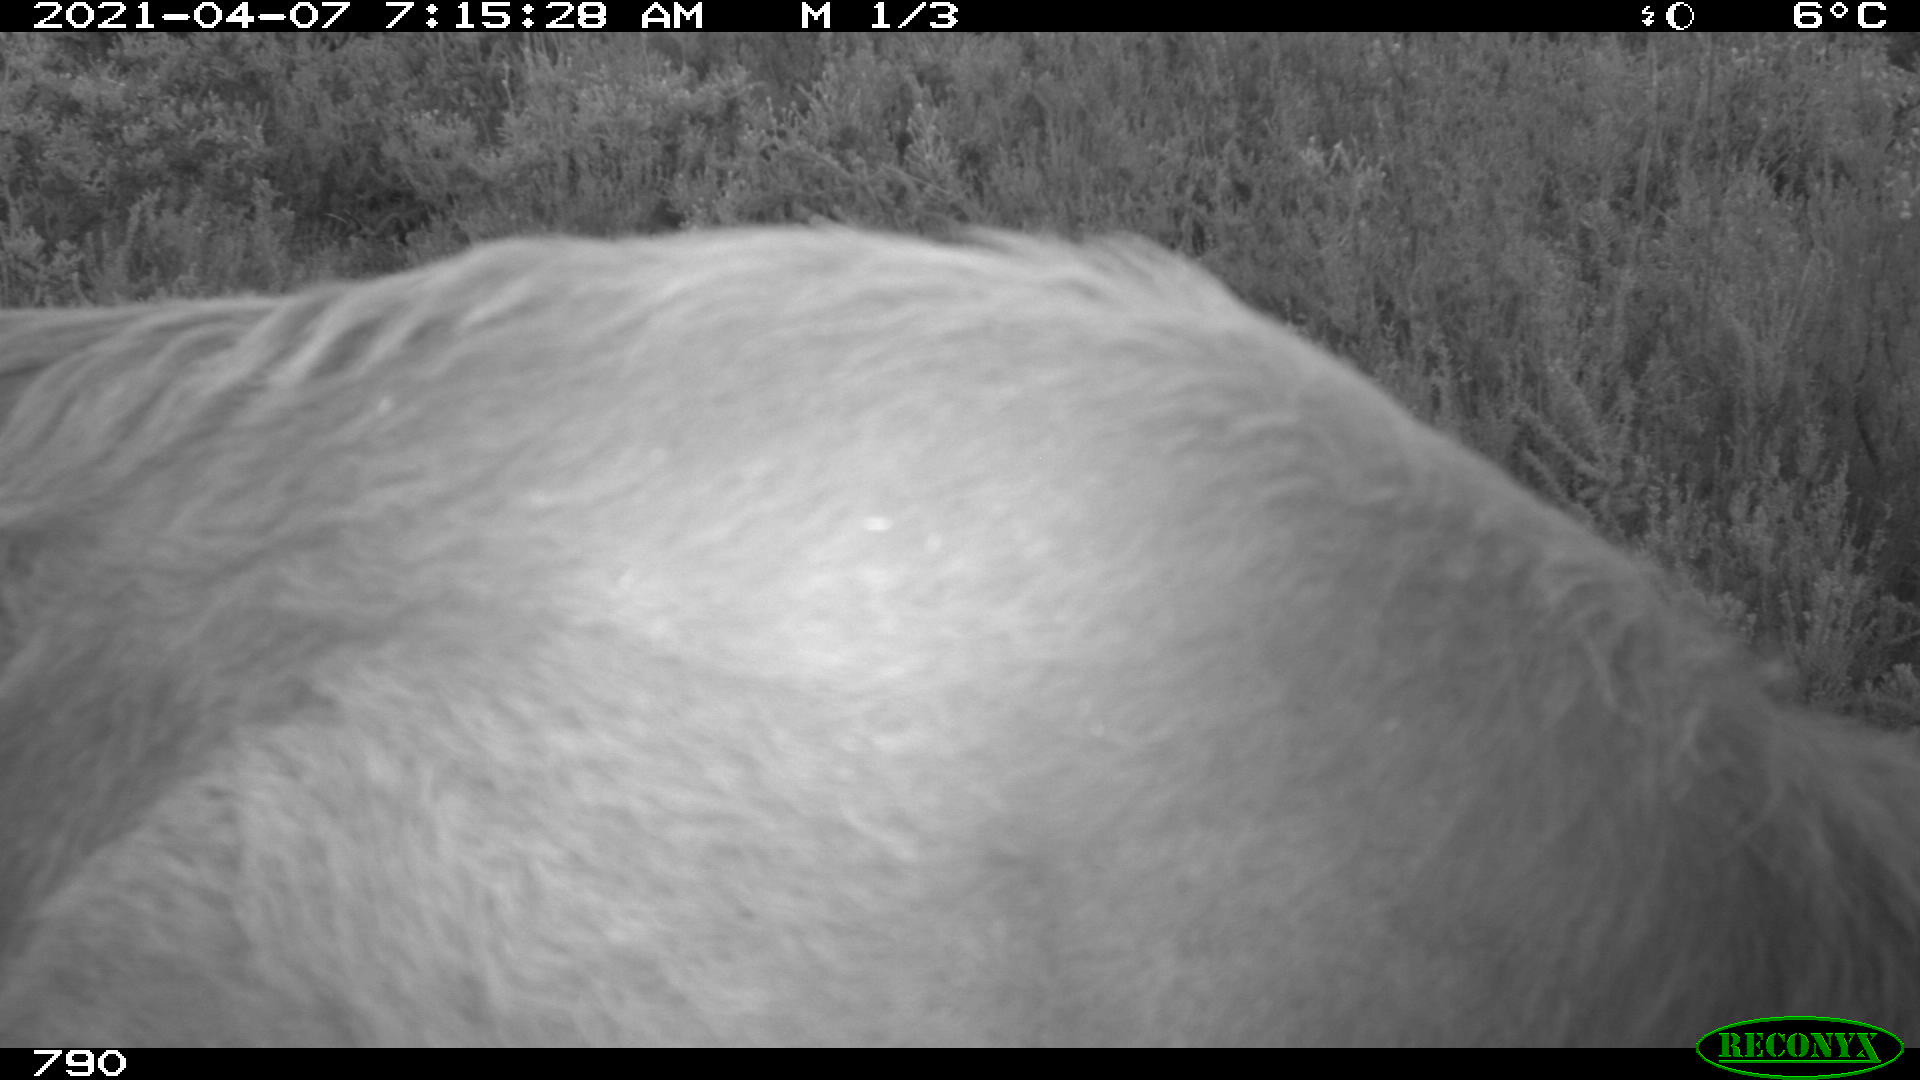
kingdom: Animalia
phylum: Chordata
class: Mammalia
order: Artiodactyla
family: Bovidae
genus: Bos
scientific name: Bos taurus
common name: Domesticated cattle
